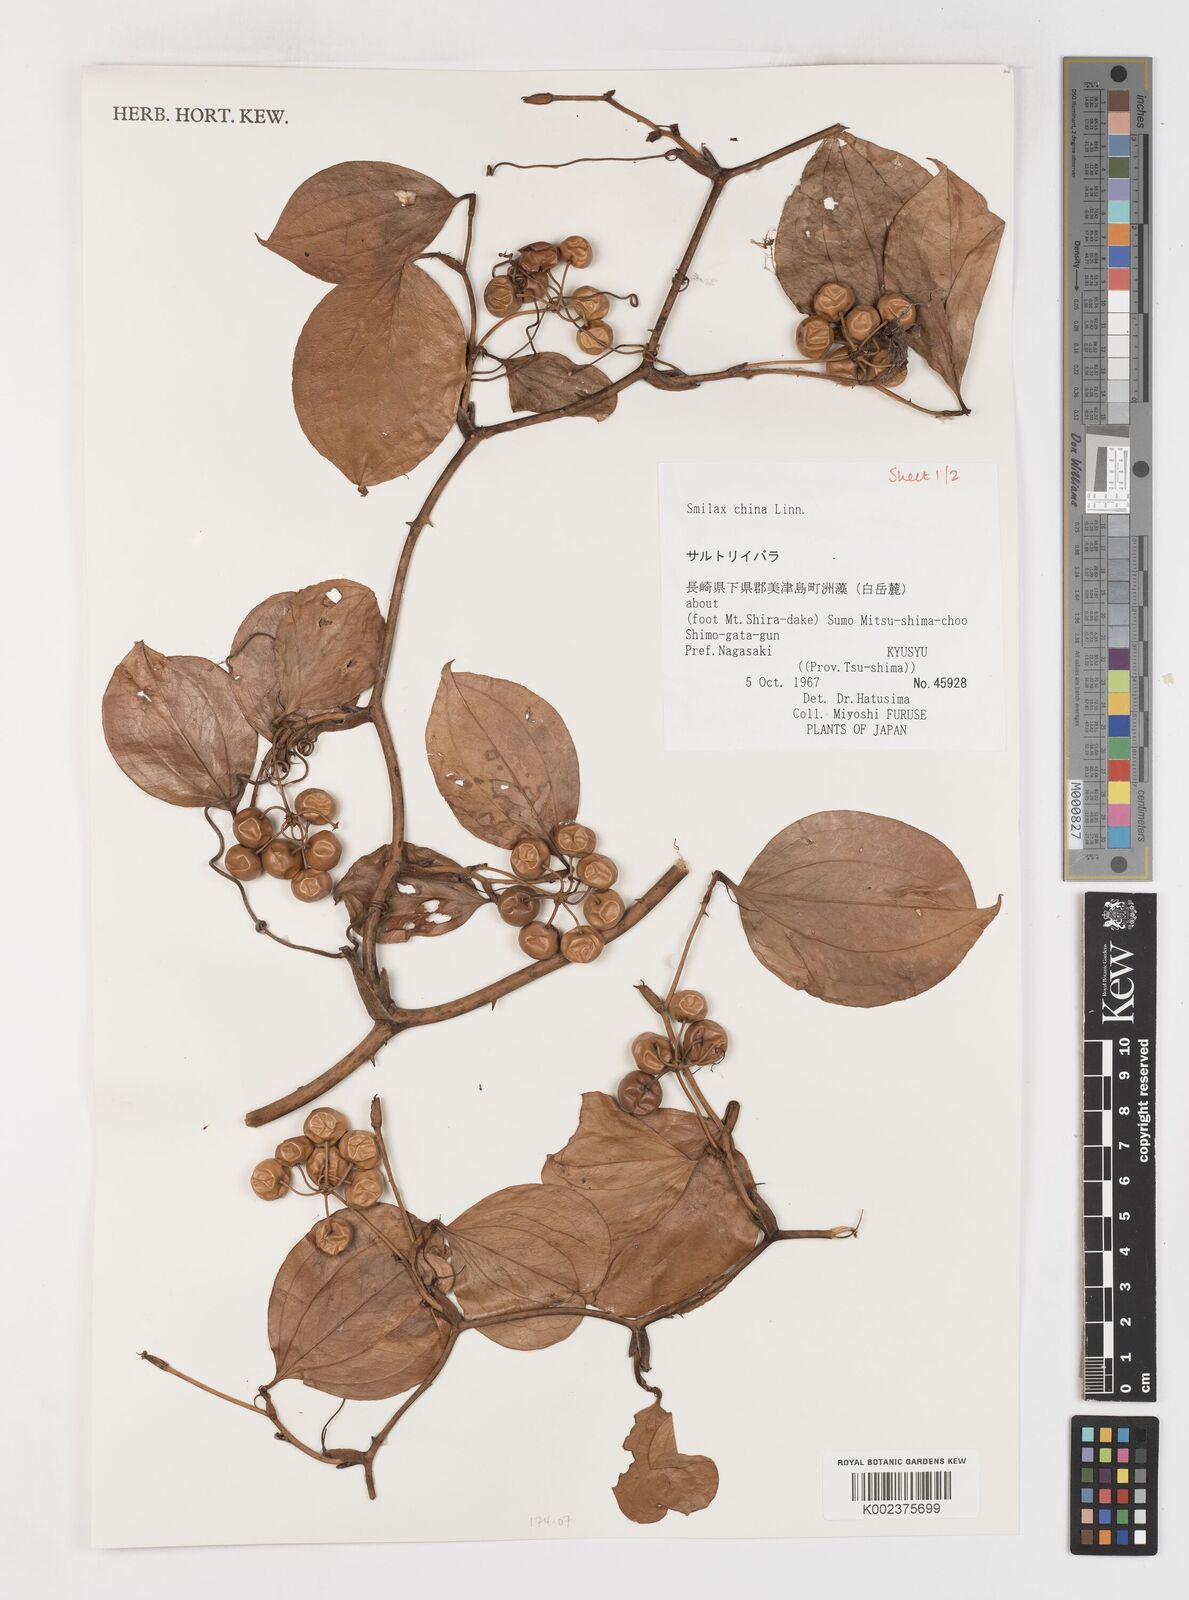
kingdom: Plantae
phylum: Tracheophyta
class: Liliopsida
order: Liliales
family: Smilacaceae
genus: Smilax
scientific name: Smilax china
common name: Chinaroot
